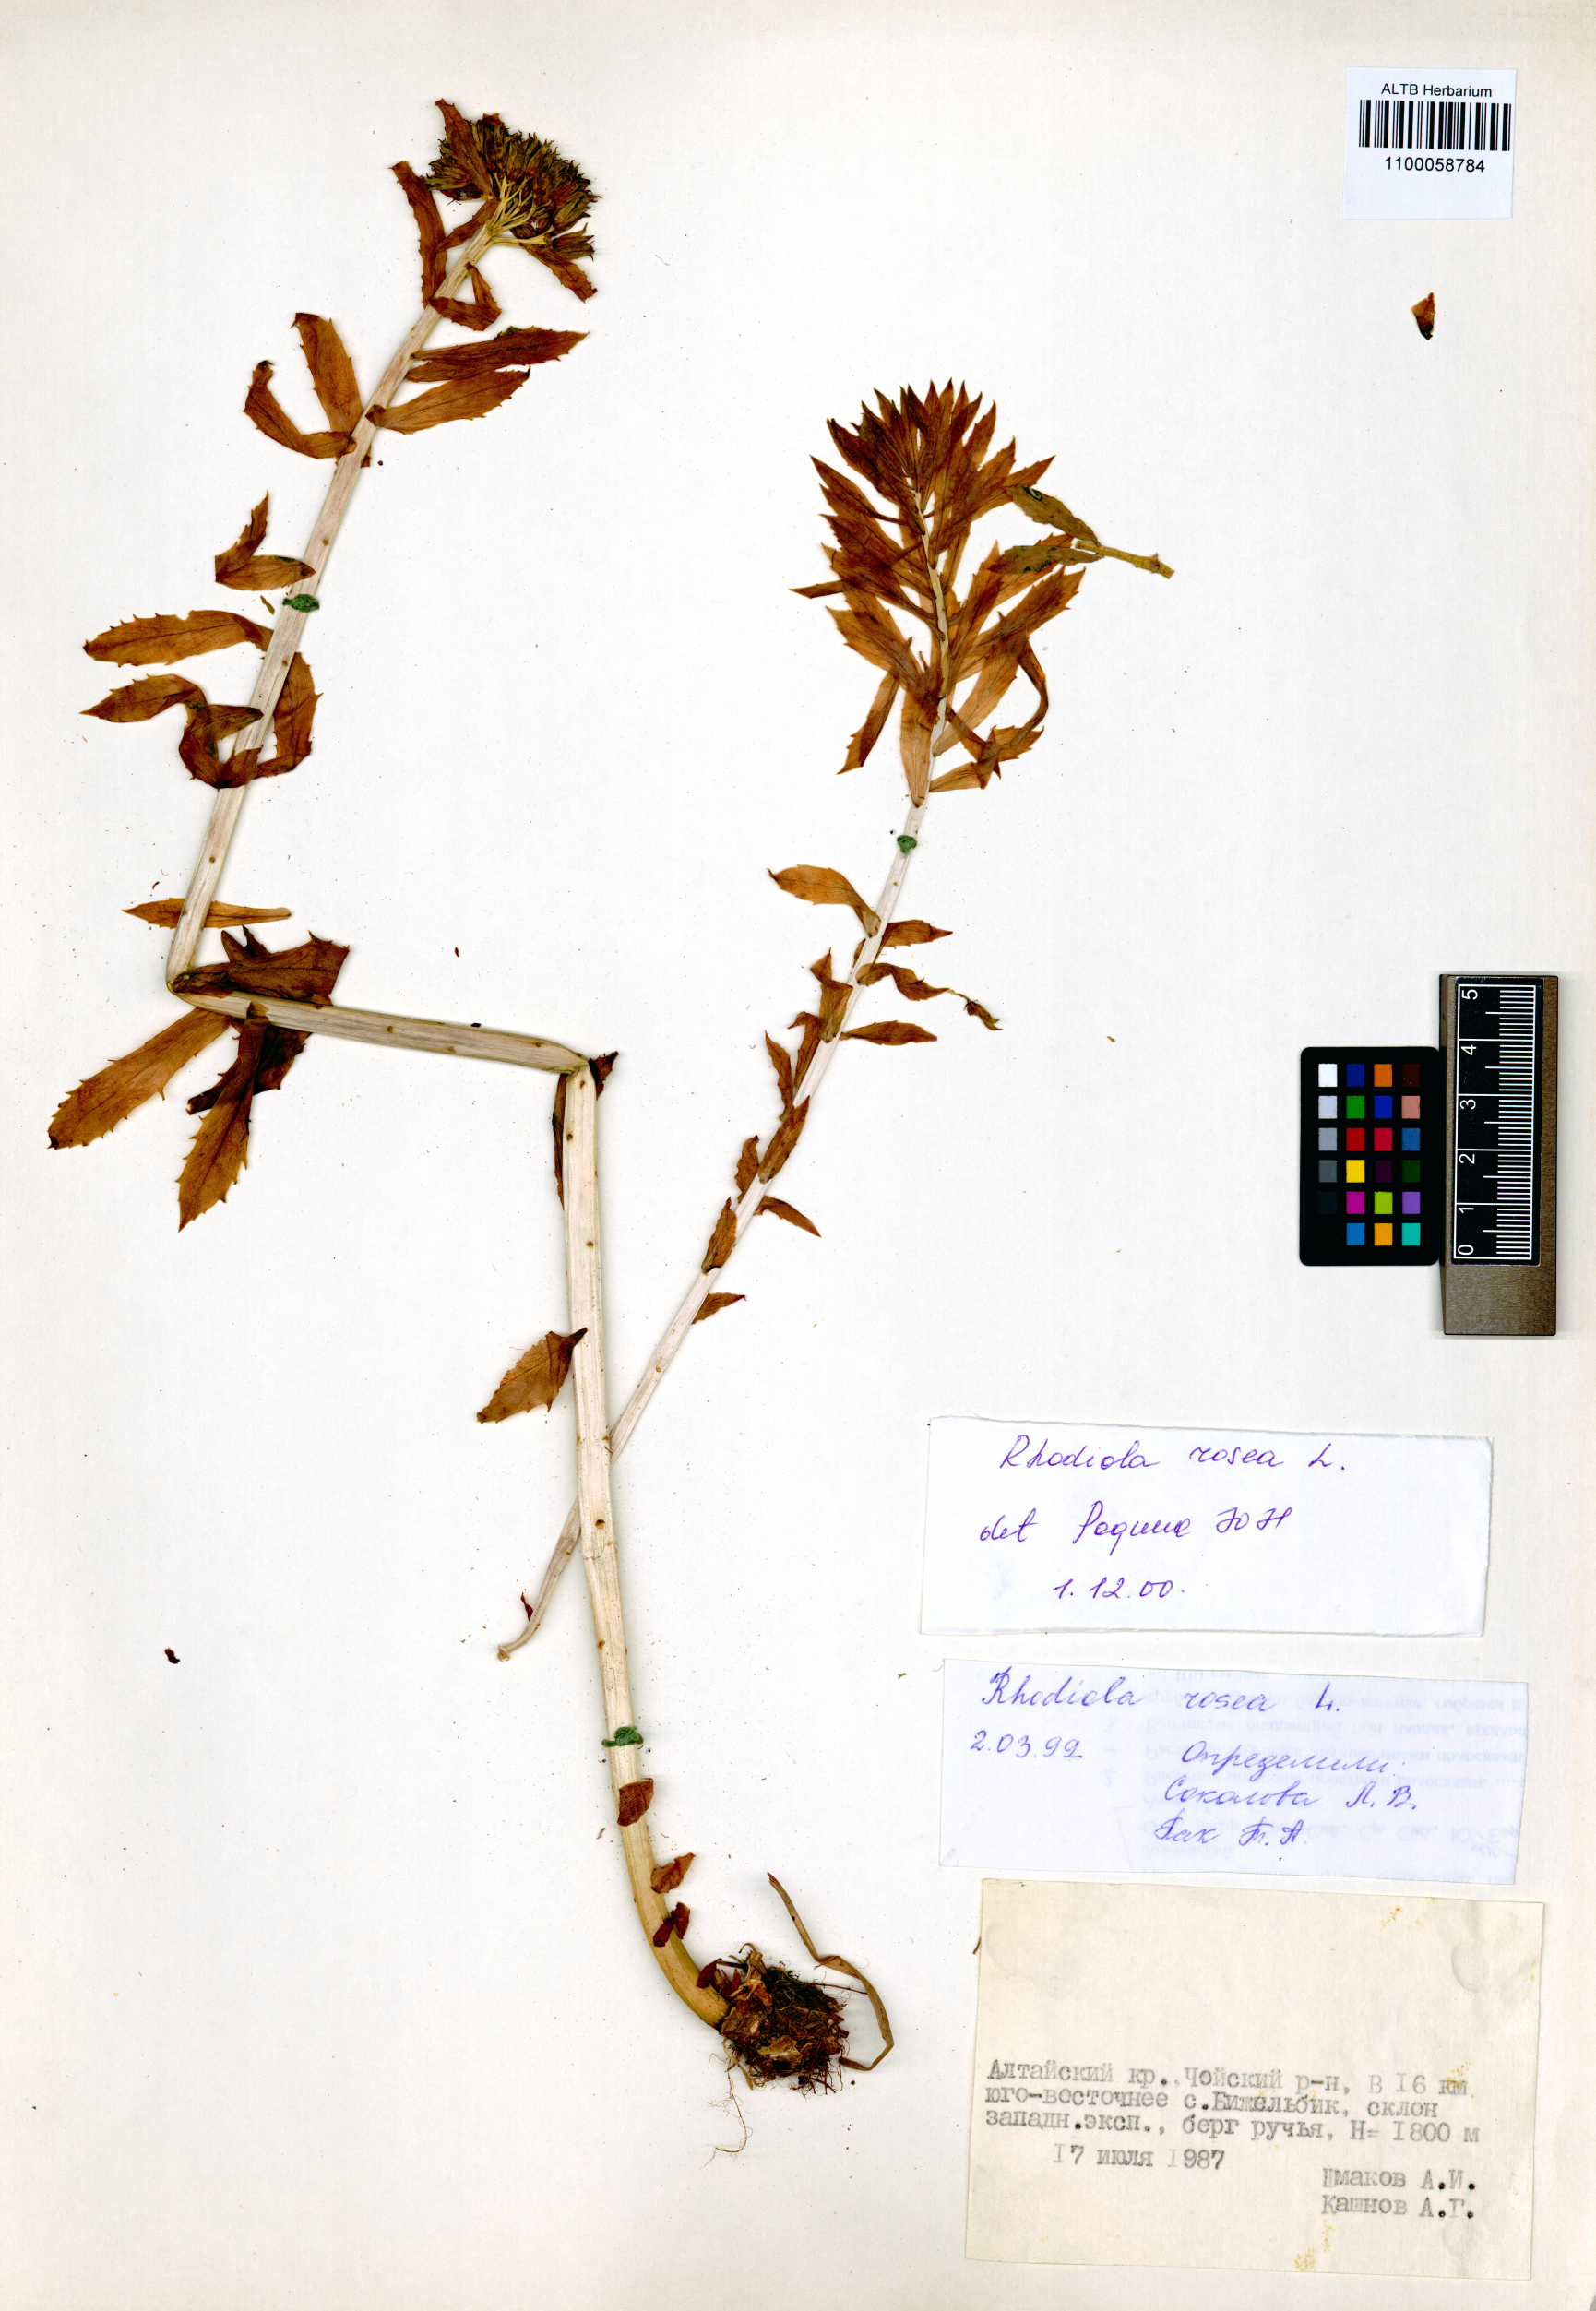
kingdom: Plantae
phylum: Tracheophyta
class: Magnoliopsida
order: Saxifragales
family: Crassulaceae
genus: Rhodiola
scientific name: Rhodiola rosea
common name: Roseroot
